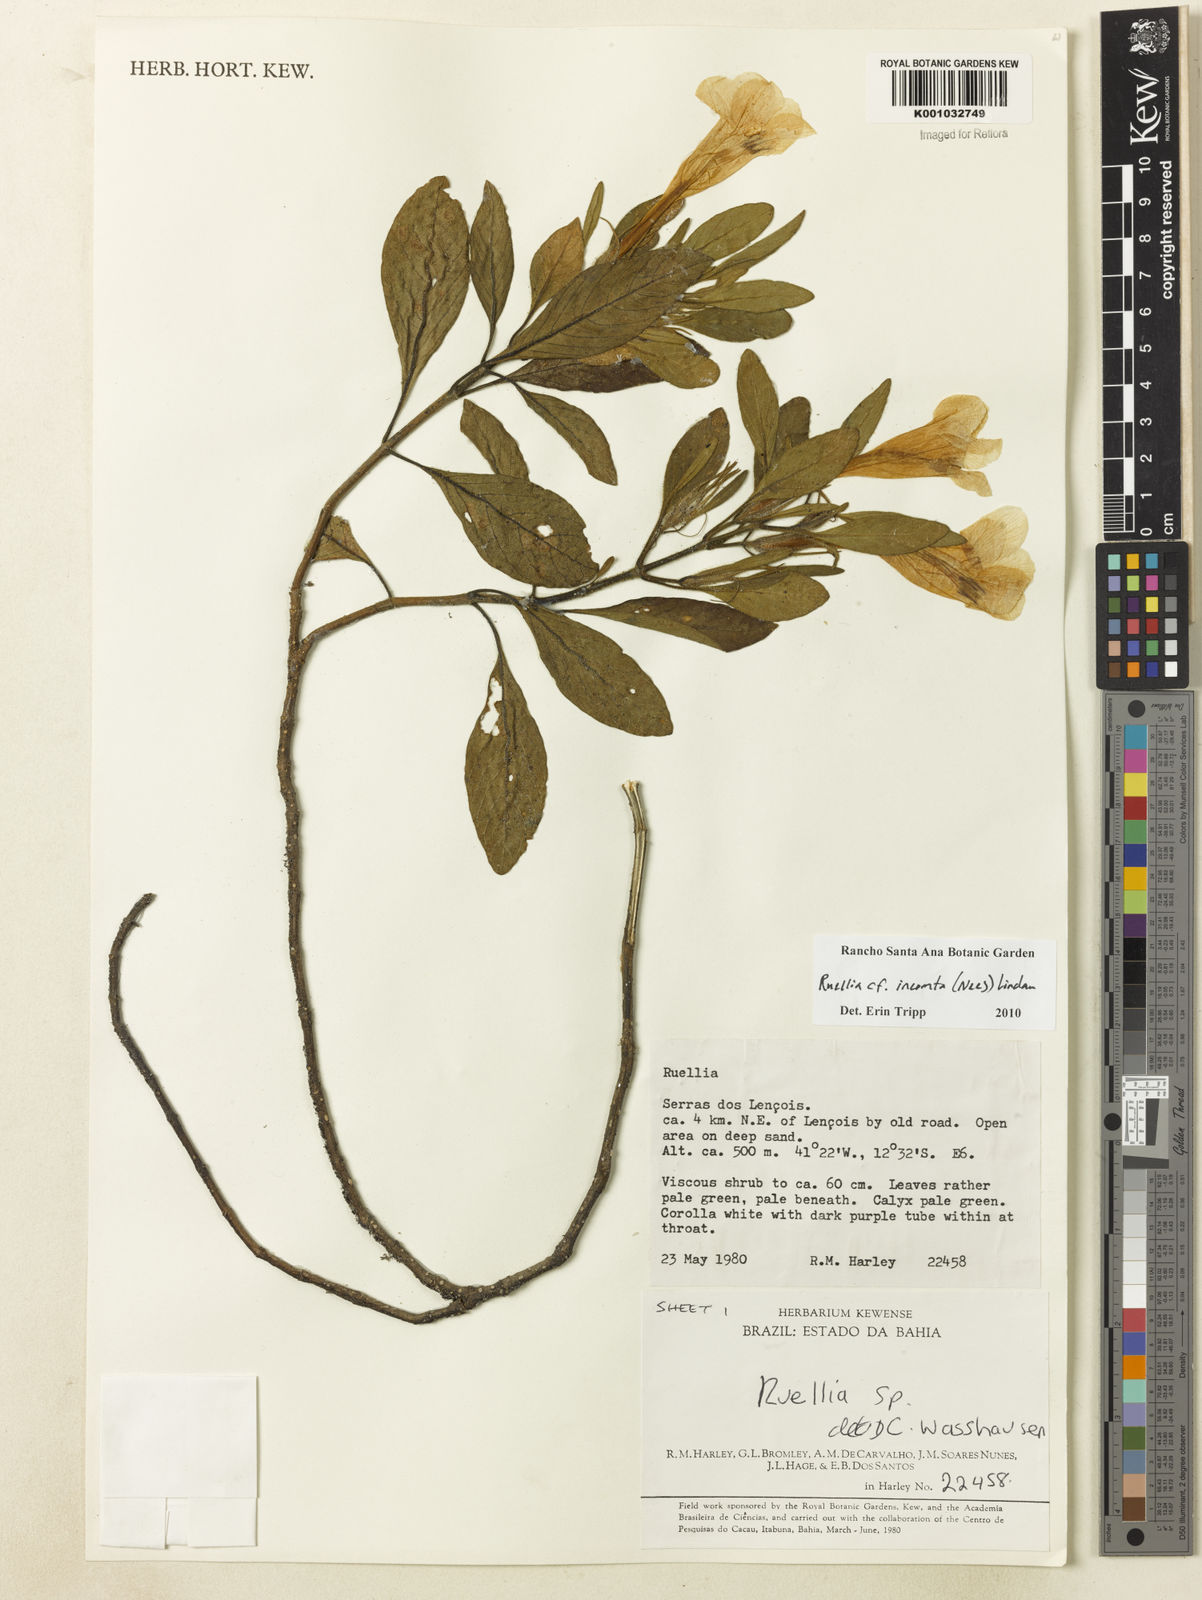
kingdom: Plantae
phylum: Tracheophyta
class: Magnoliopsida
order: Lamiales
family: Acanthaceae
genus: Ruellia
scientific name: Ruellia
